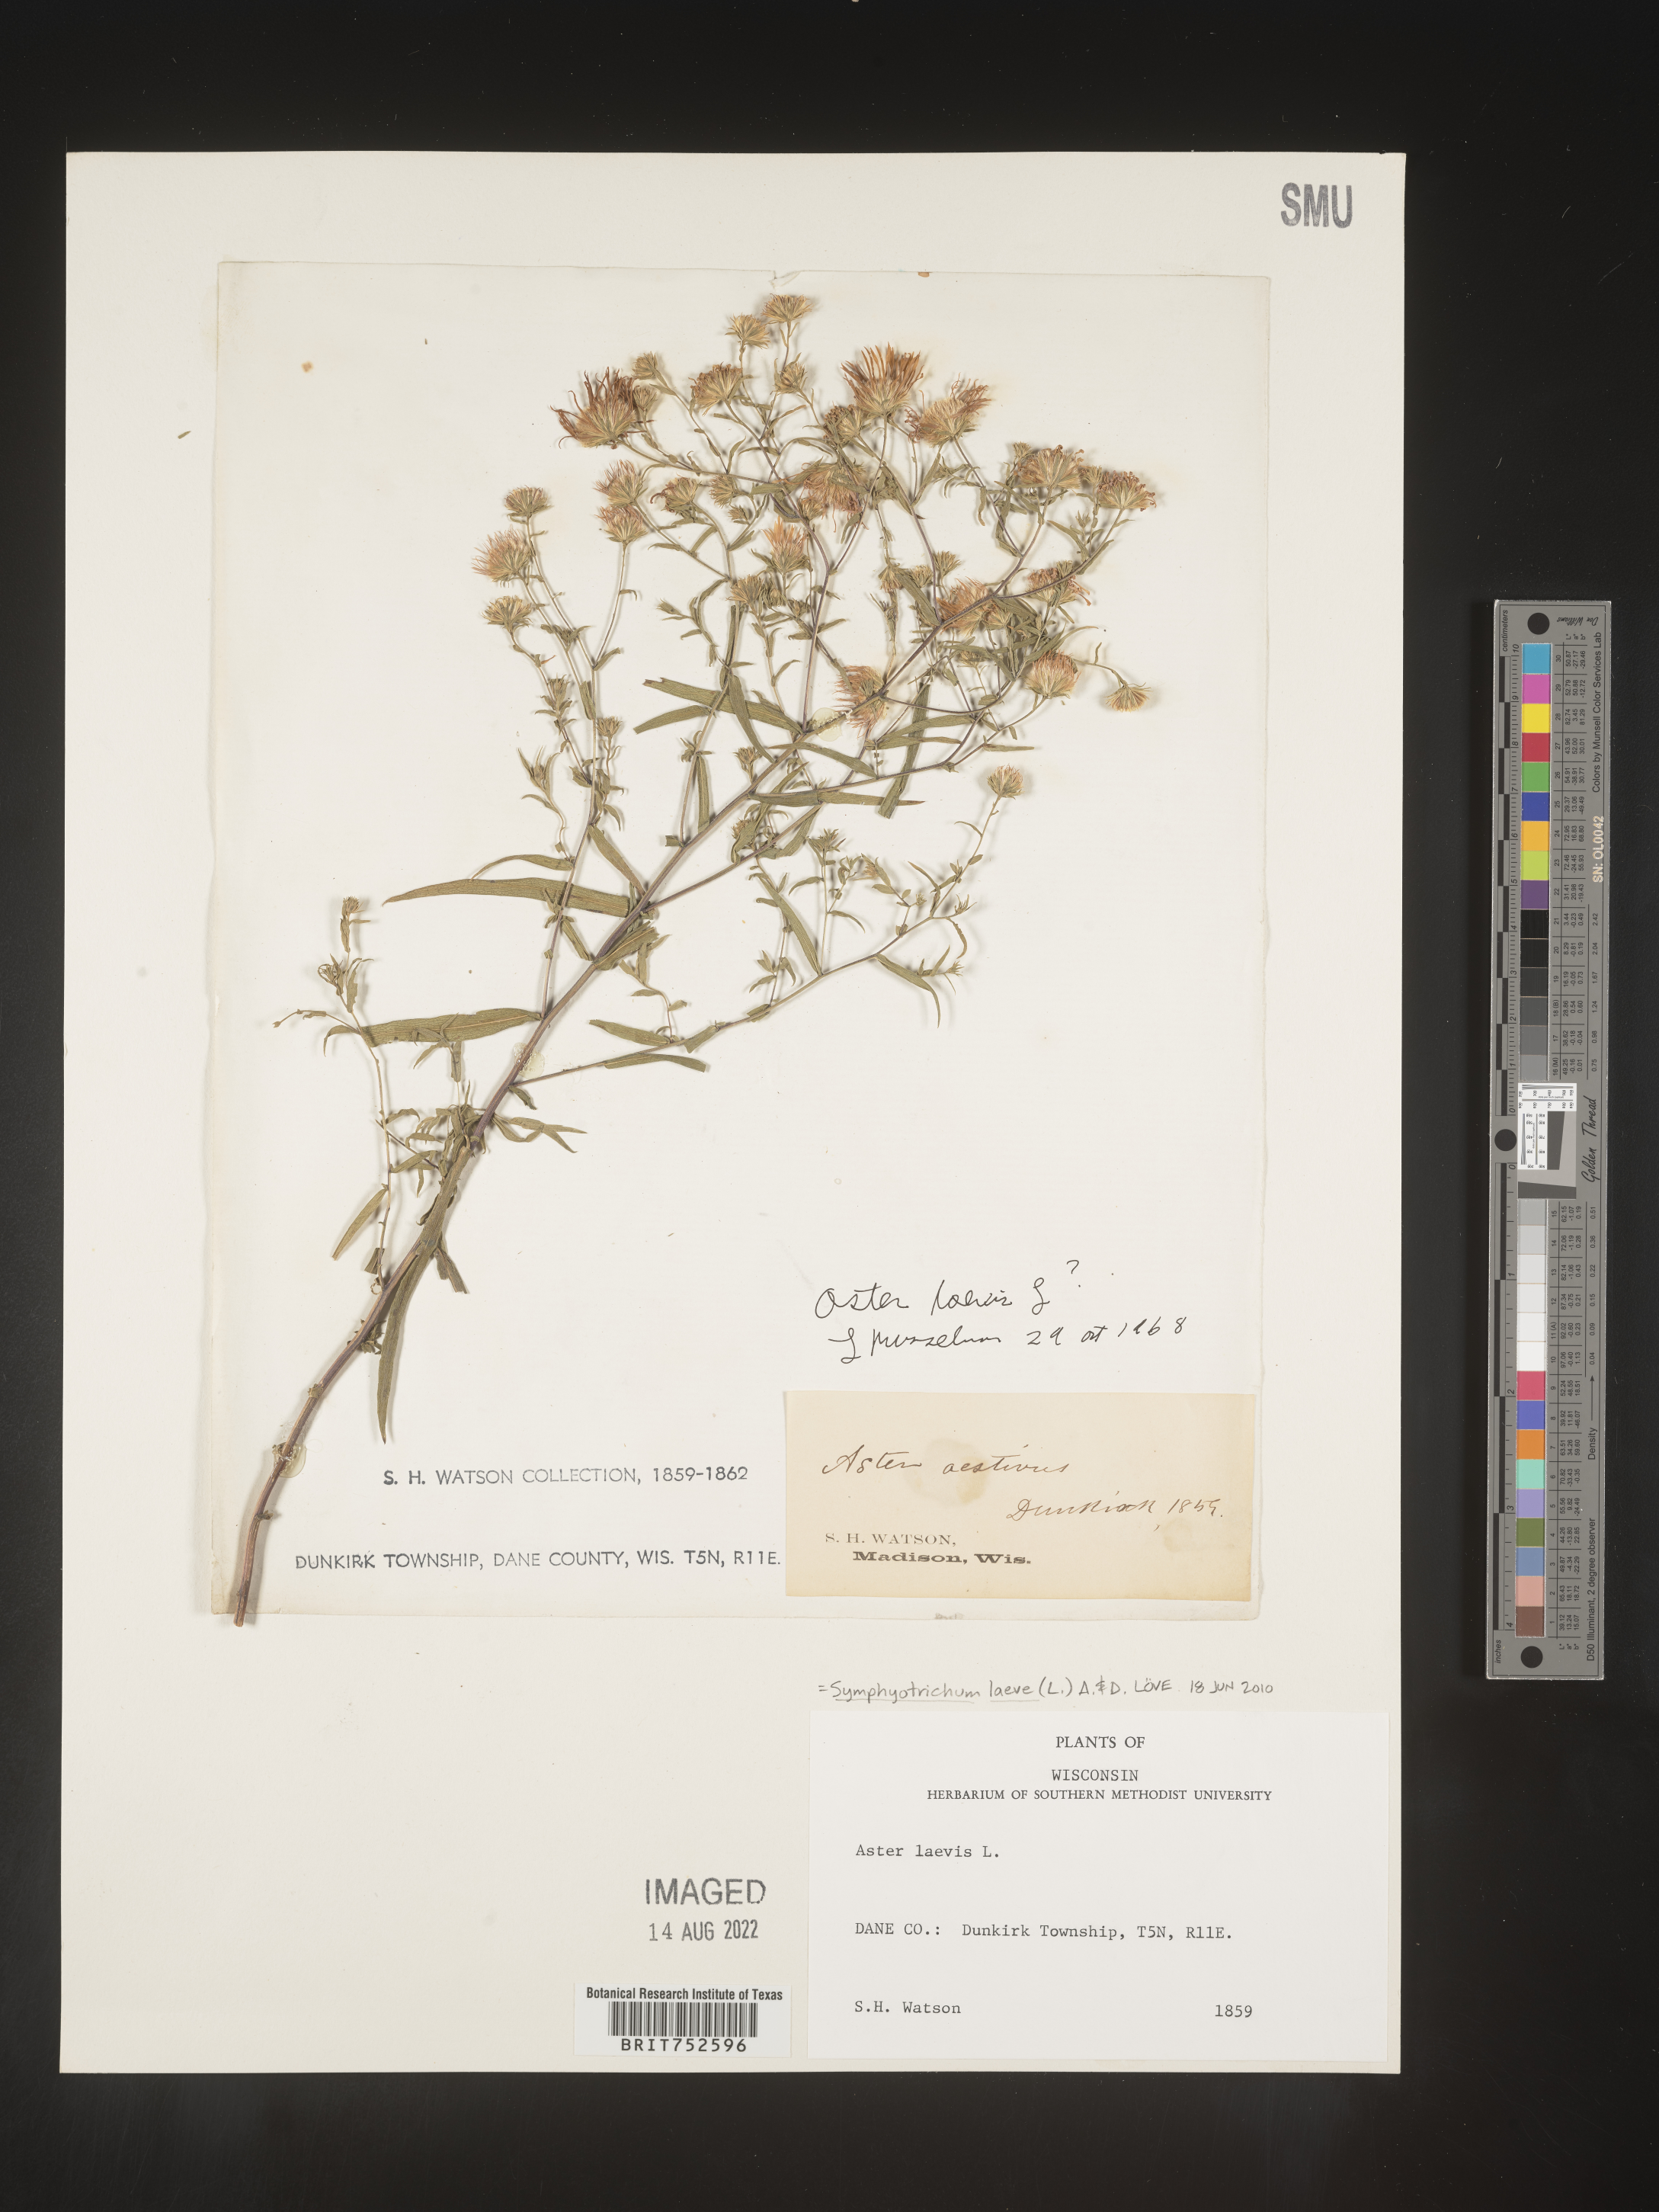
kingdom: Plantae
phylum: Tracheophyta
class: Magnoliopsida
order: Asterales
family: Asteraceae
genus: Symphyotrichum
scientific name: Symphyotrichum laeve
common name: Glaucous aster
